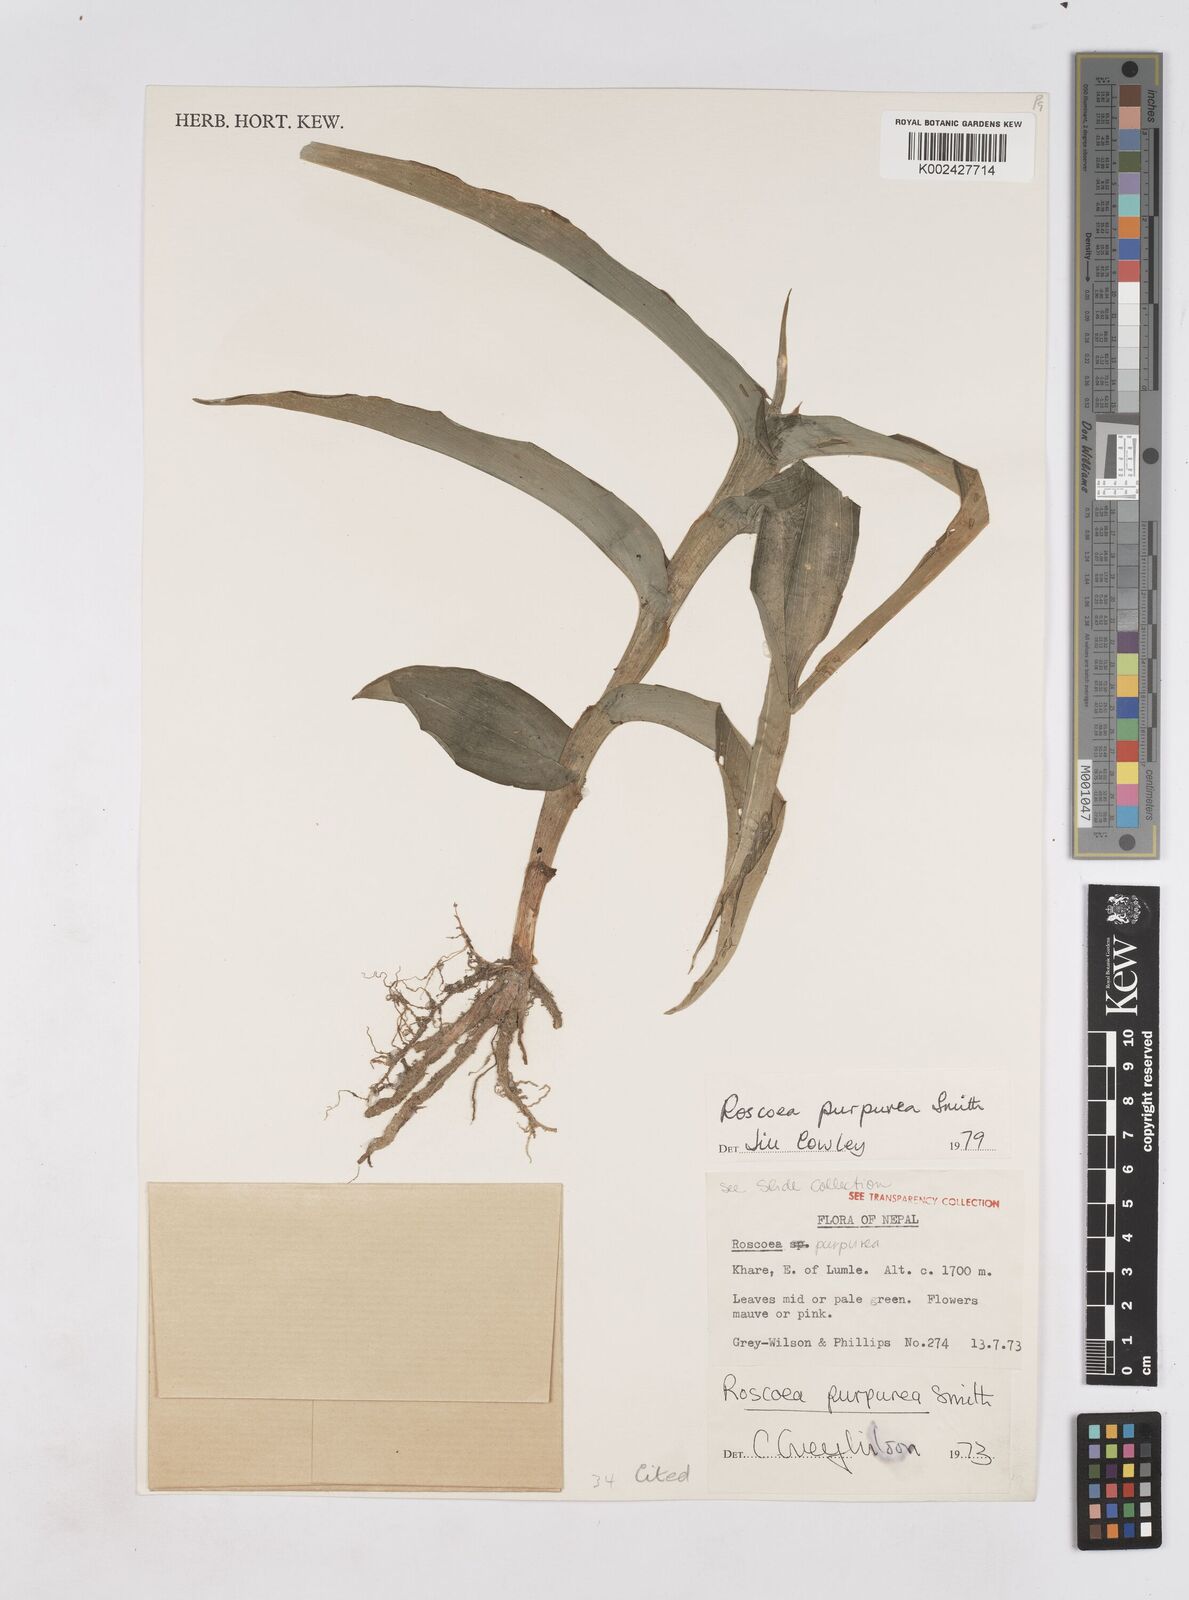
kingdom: Plantae
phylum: Tracheophyta
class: Liliopsida
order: Zingiberales
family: Zingiberaceae
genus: Roscoea
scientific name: Roscoea purpurea
